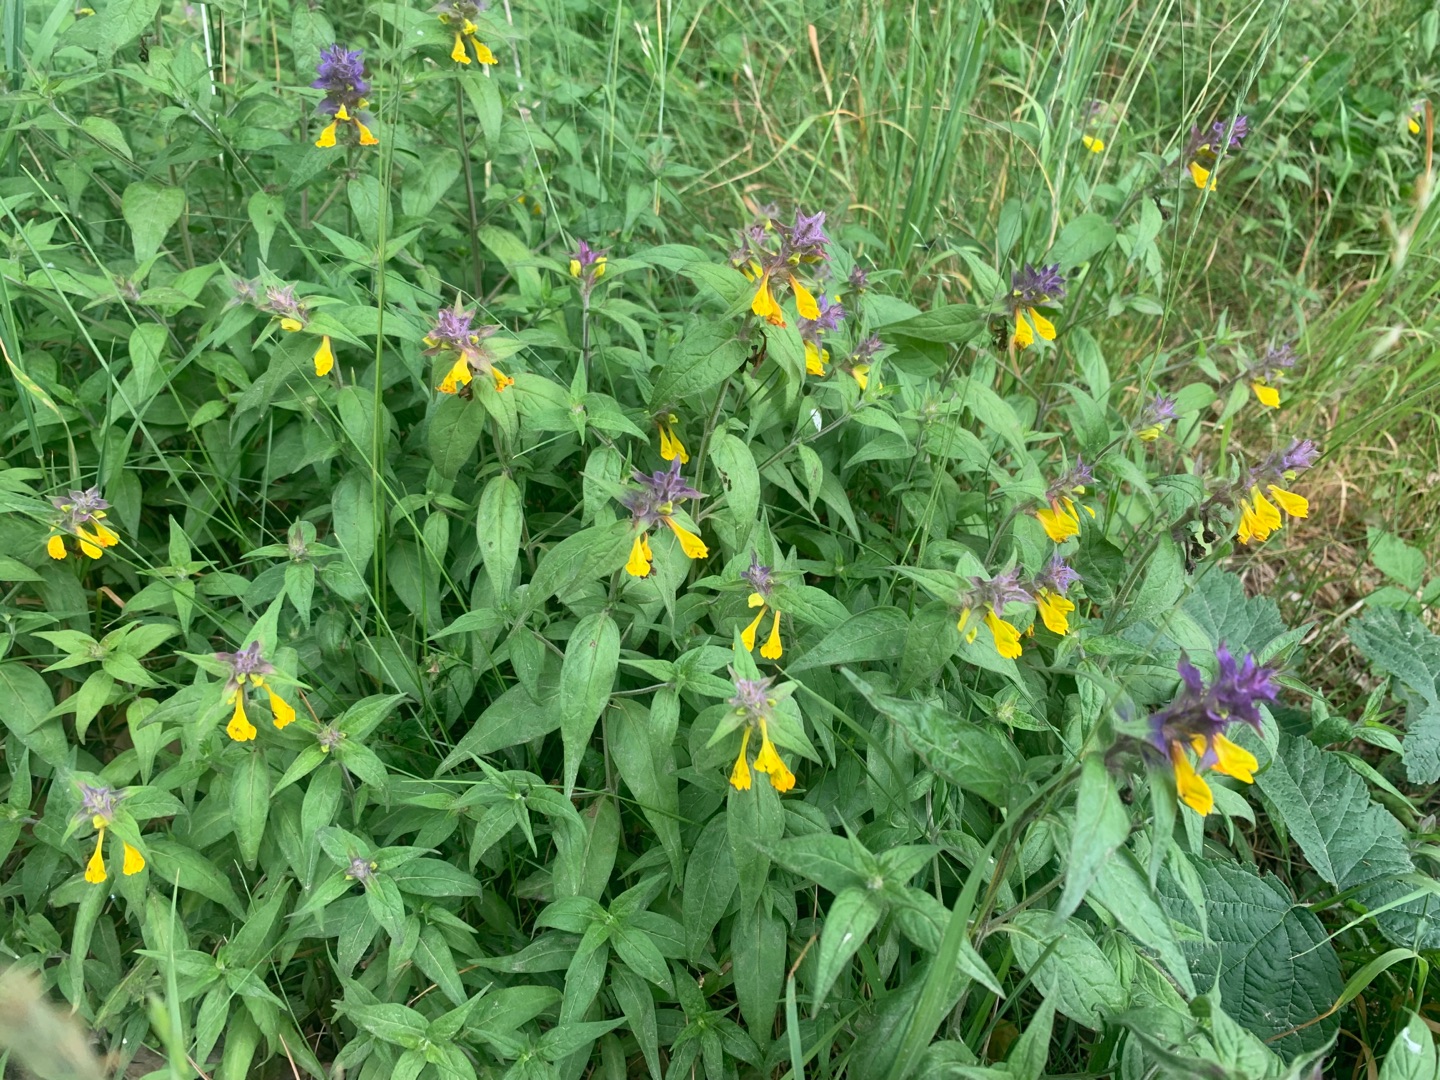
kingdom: Plantae
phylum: Tracheophyta
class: Magnoliopsida
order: Lamiales
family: Orobanchaceae
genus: Melampyrum
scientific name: Melampyrum nemorosum
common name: Blåtoppet kohvede
